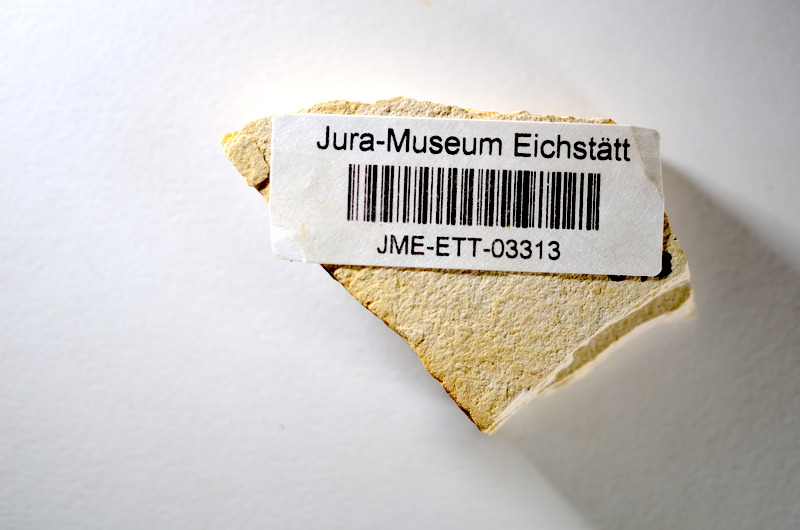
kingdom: Animalia
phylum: Chordata
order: Salmoniformes
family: Orthogonikleithridae
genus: Orthogonikleithrus
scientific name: Orthogonikleithrus hoelli
